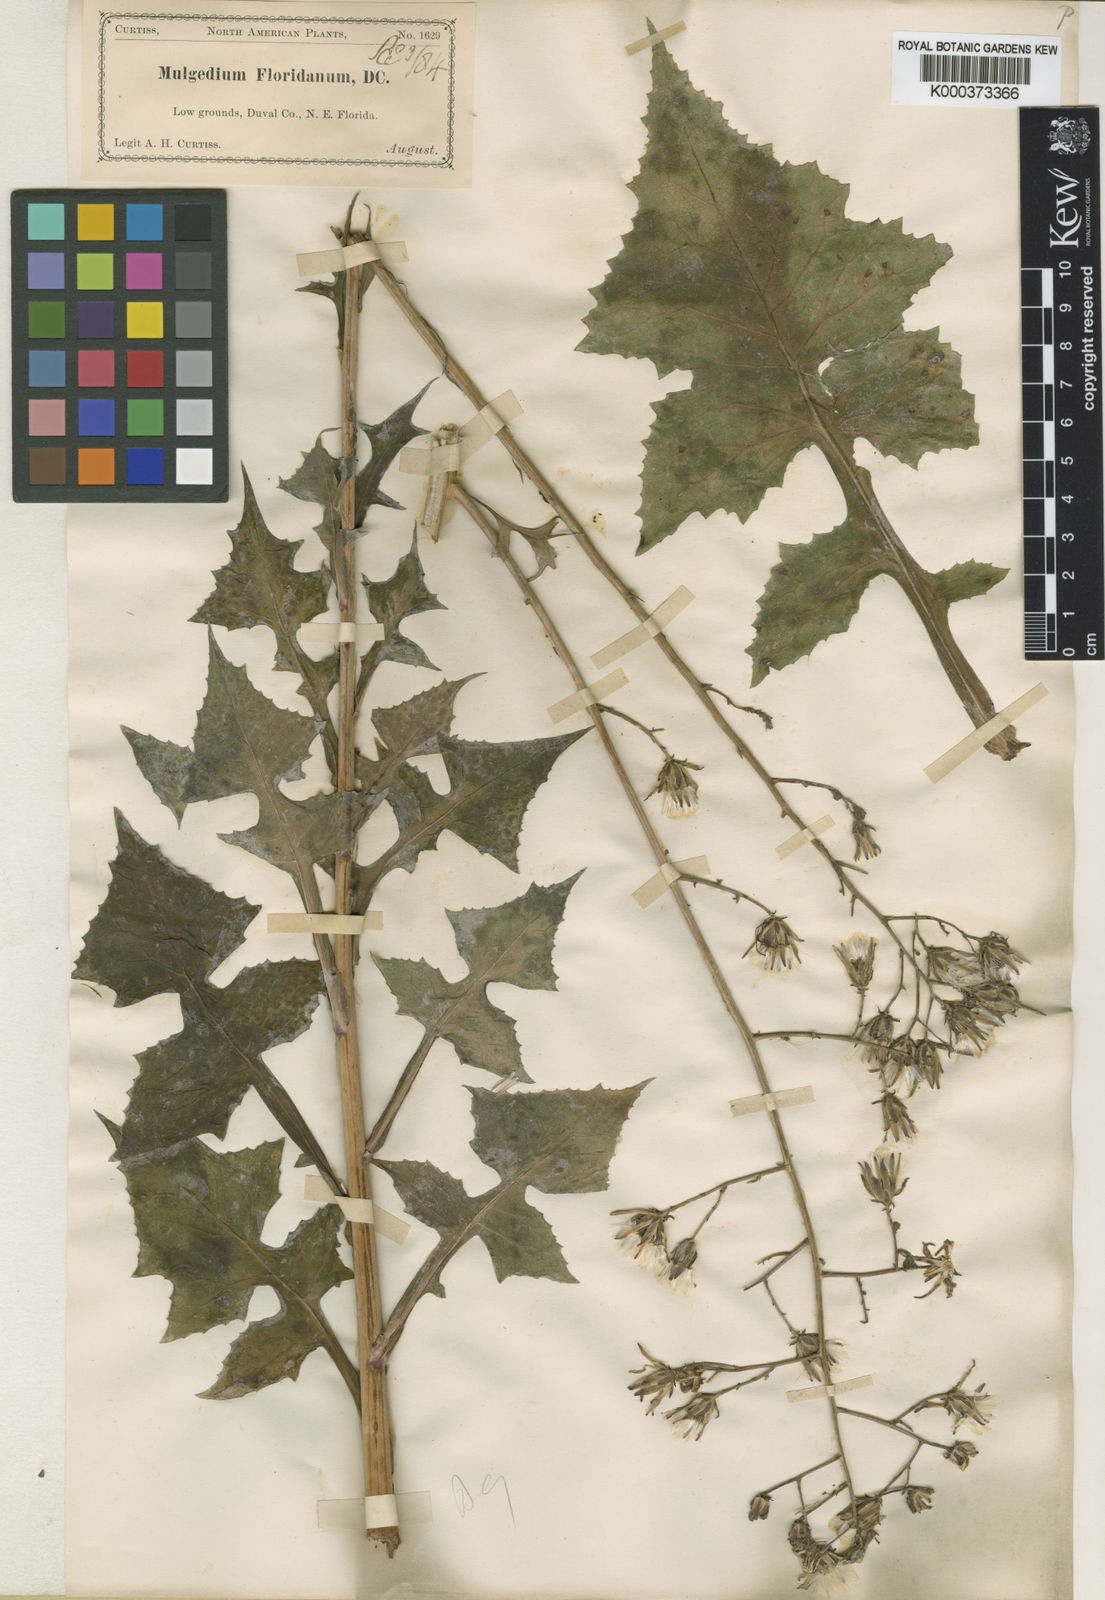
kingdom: Plantae
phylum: Tracheophyta
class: Magnoliopsida
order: Asterales
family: Asteraceae
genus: Lactuca
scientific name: Lactuca floridana
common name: Woodland lettuce
